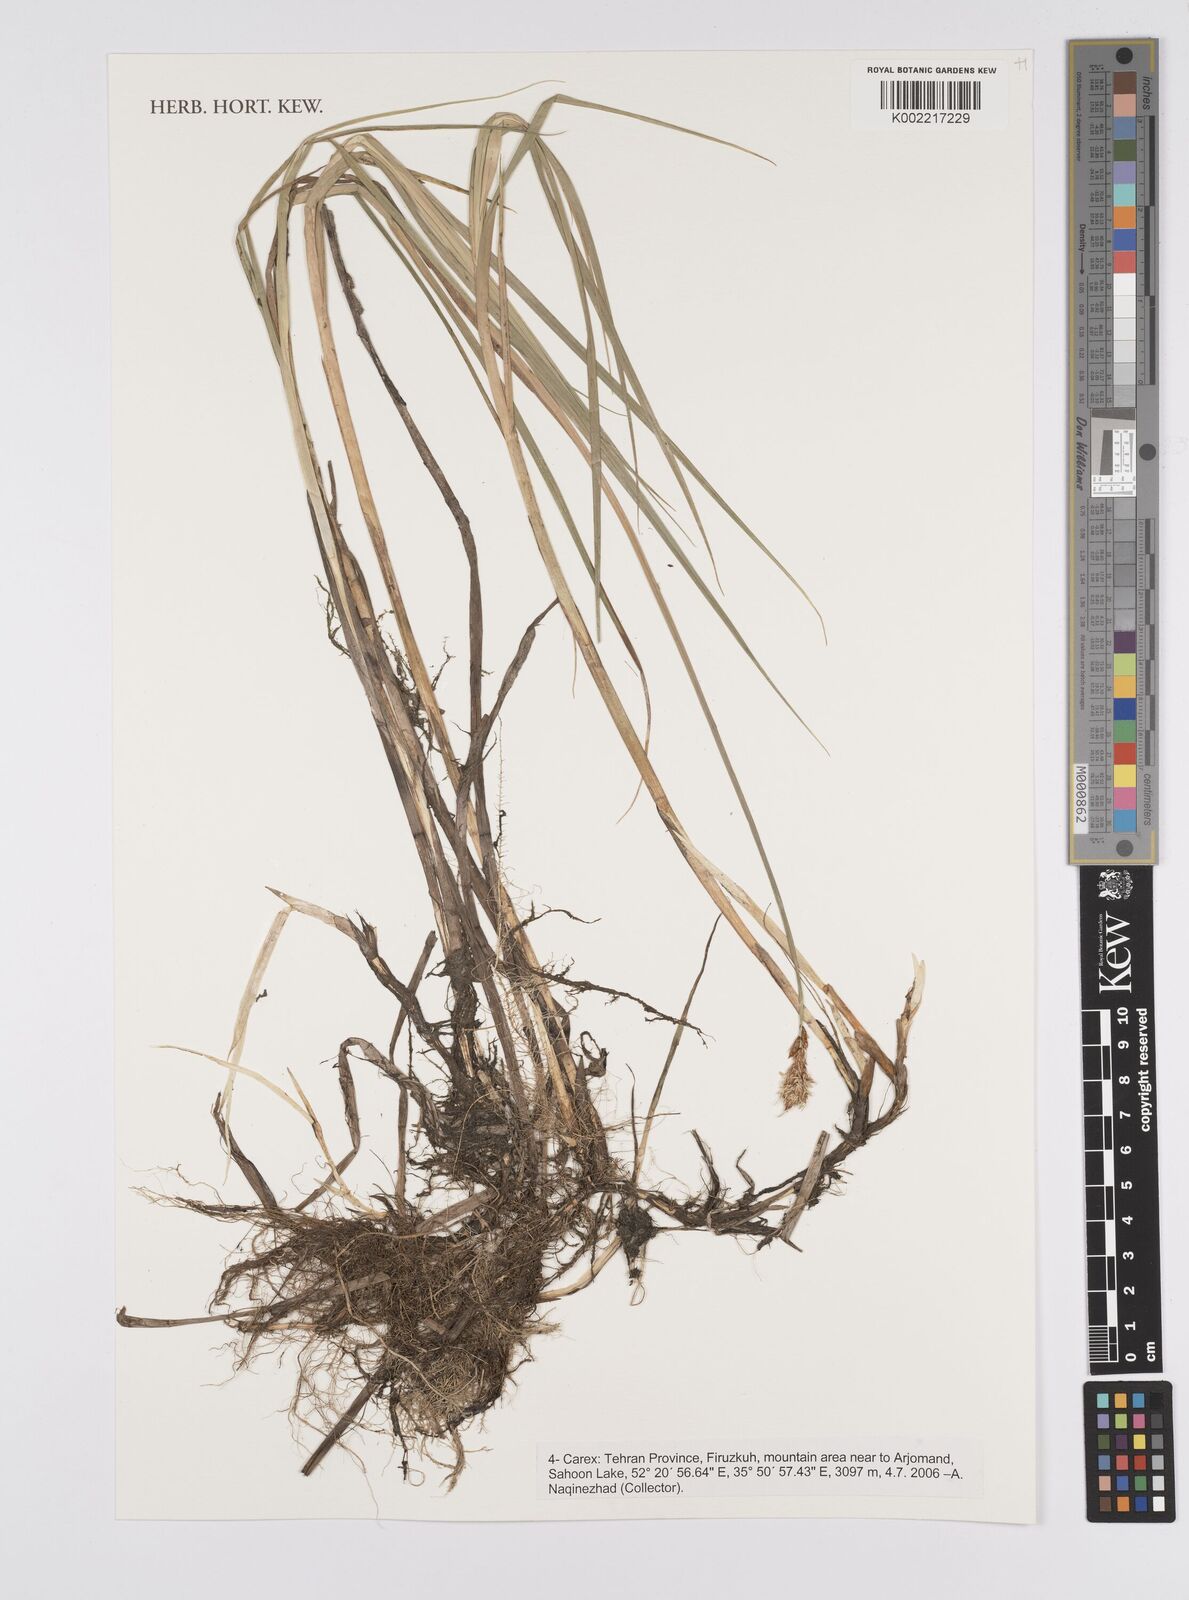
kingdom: Plantae
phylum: Tracheophyta
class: Liliopsida
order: Poales
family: Cyperaceae
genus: Carex
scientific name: Carex
